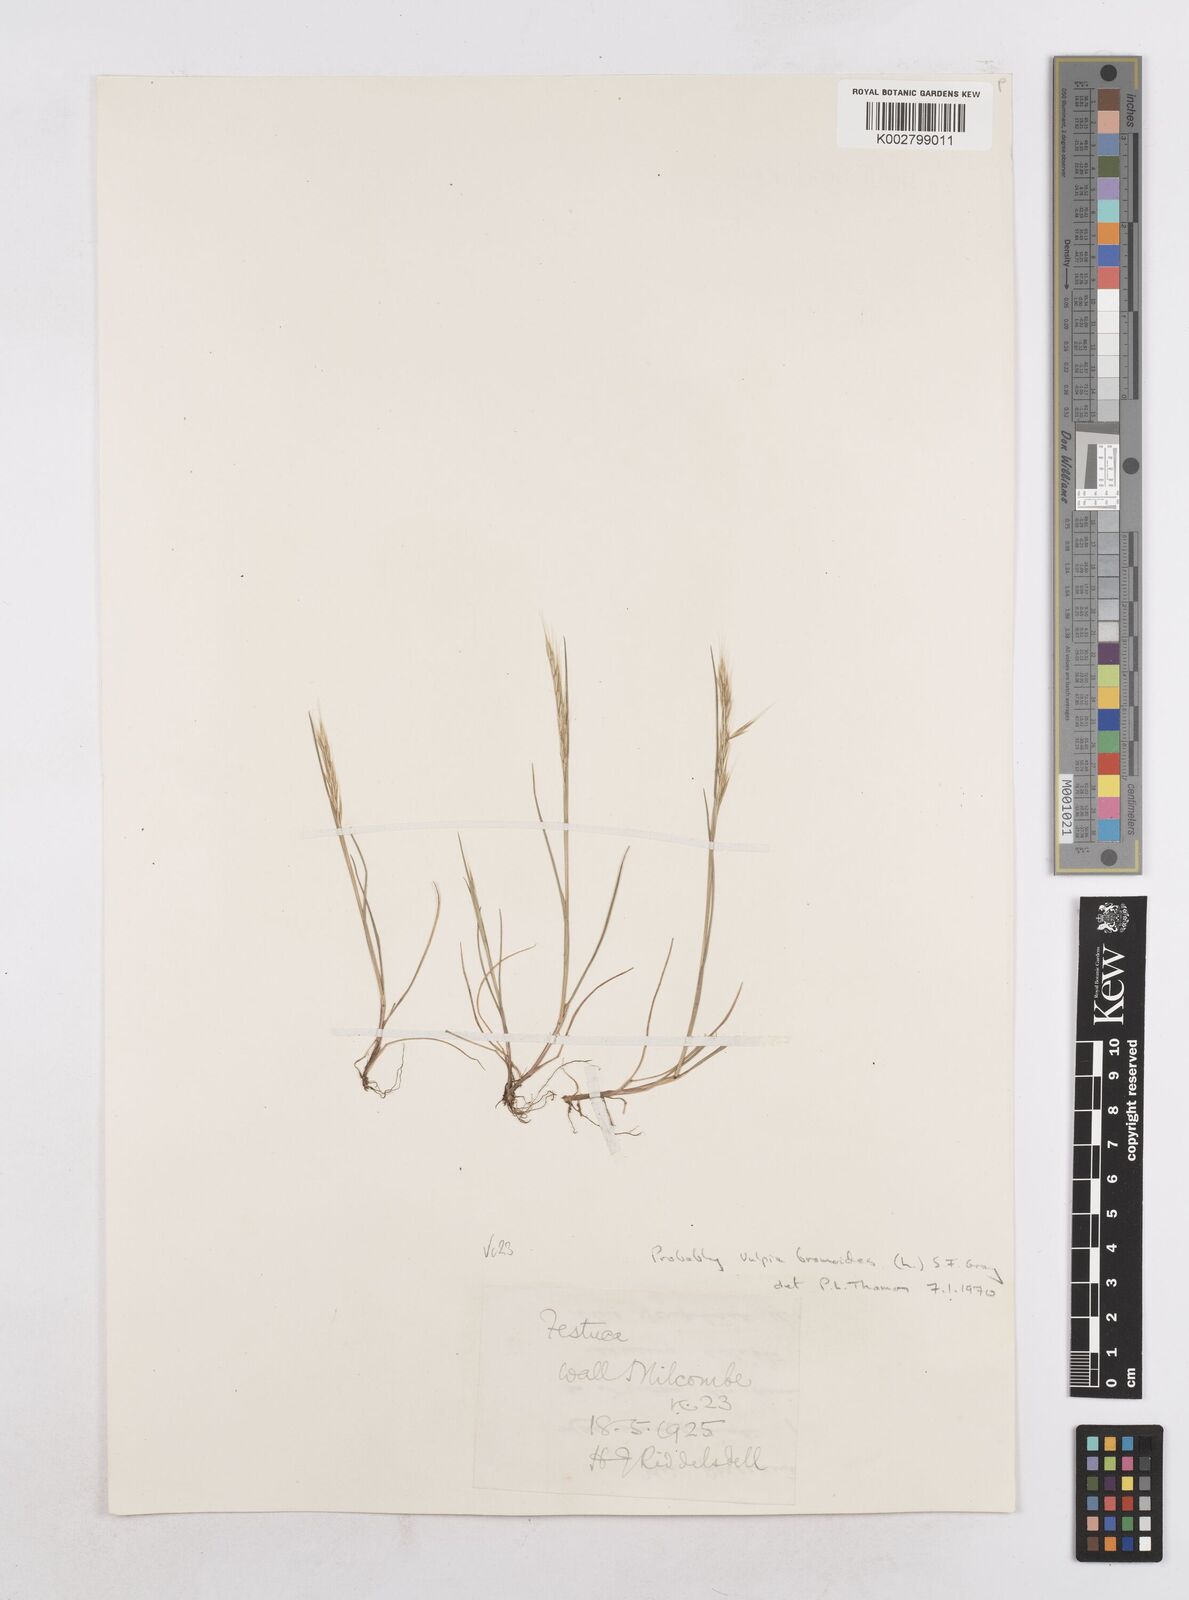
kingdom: Plantae
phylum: Tracheophyta
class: Liliopsida
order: Poales
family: Poaceae
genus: Festuca
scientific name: Festuca bromoides
